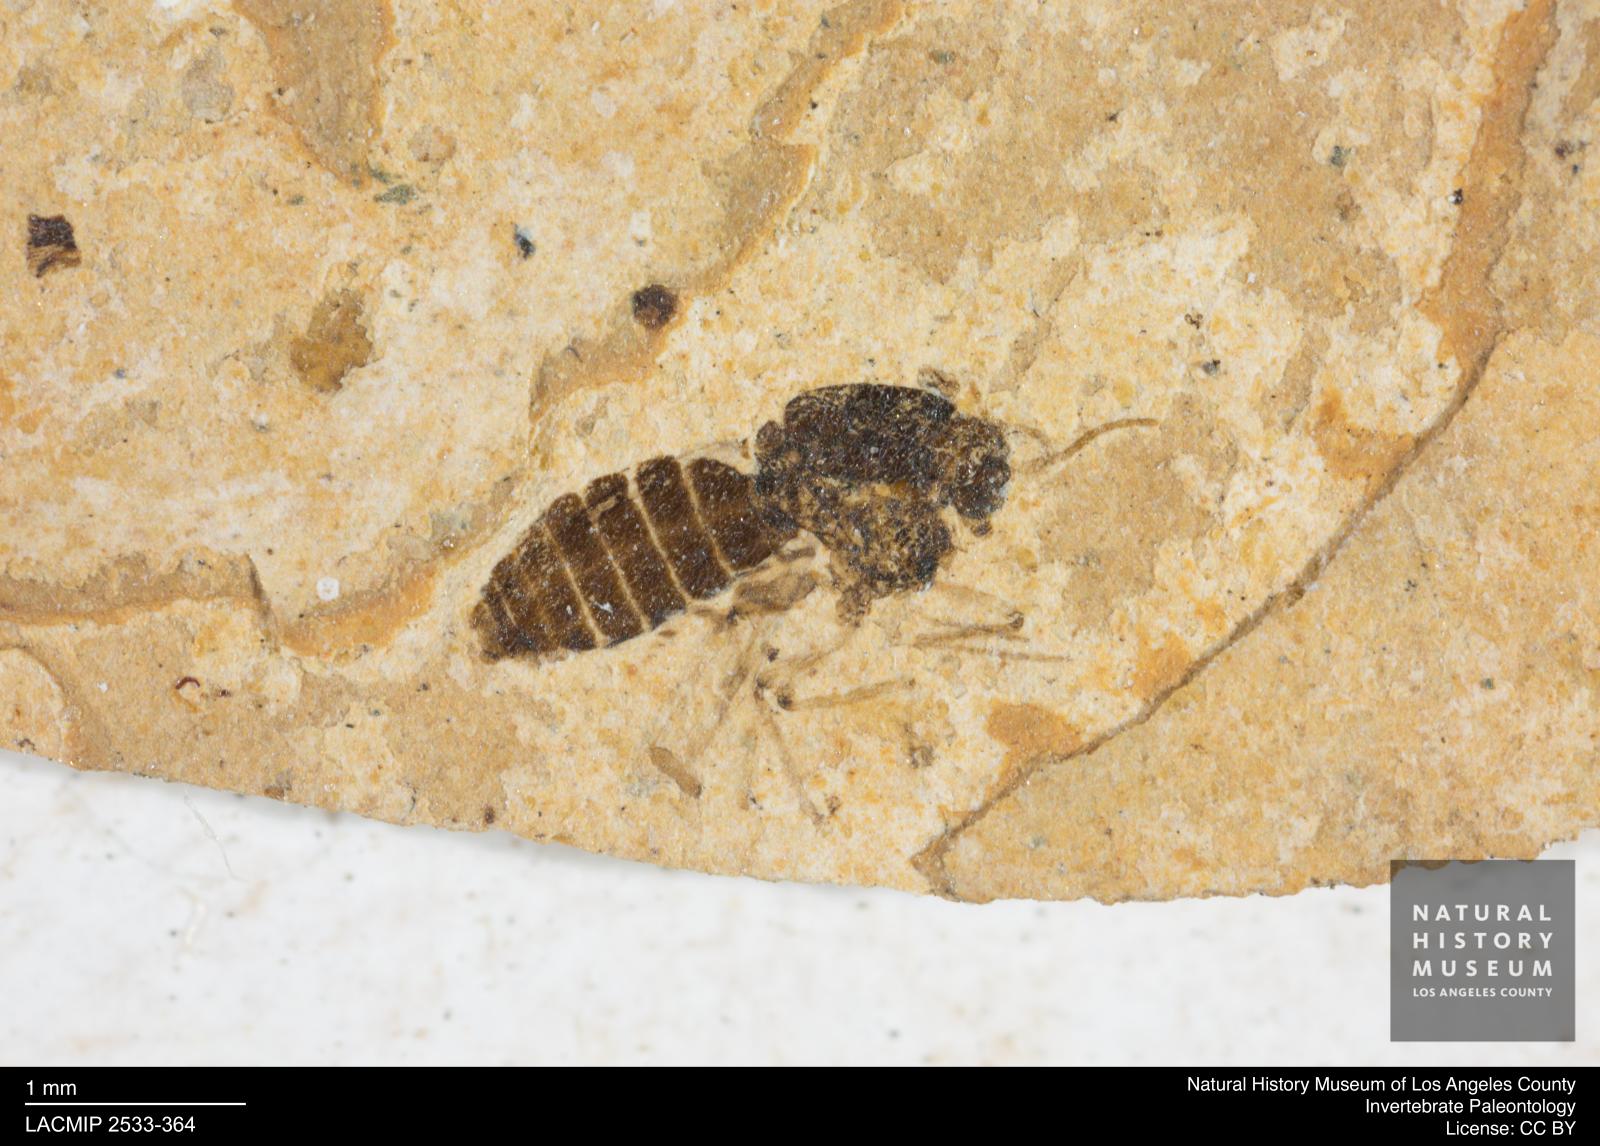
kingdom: Animalia
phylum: Arthropoda
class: Insecta
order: Diptera
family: Ceratopogonidae
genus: Culicoides
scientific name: Culicoides elongatulus
